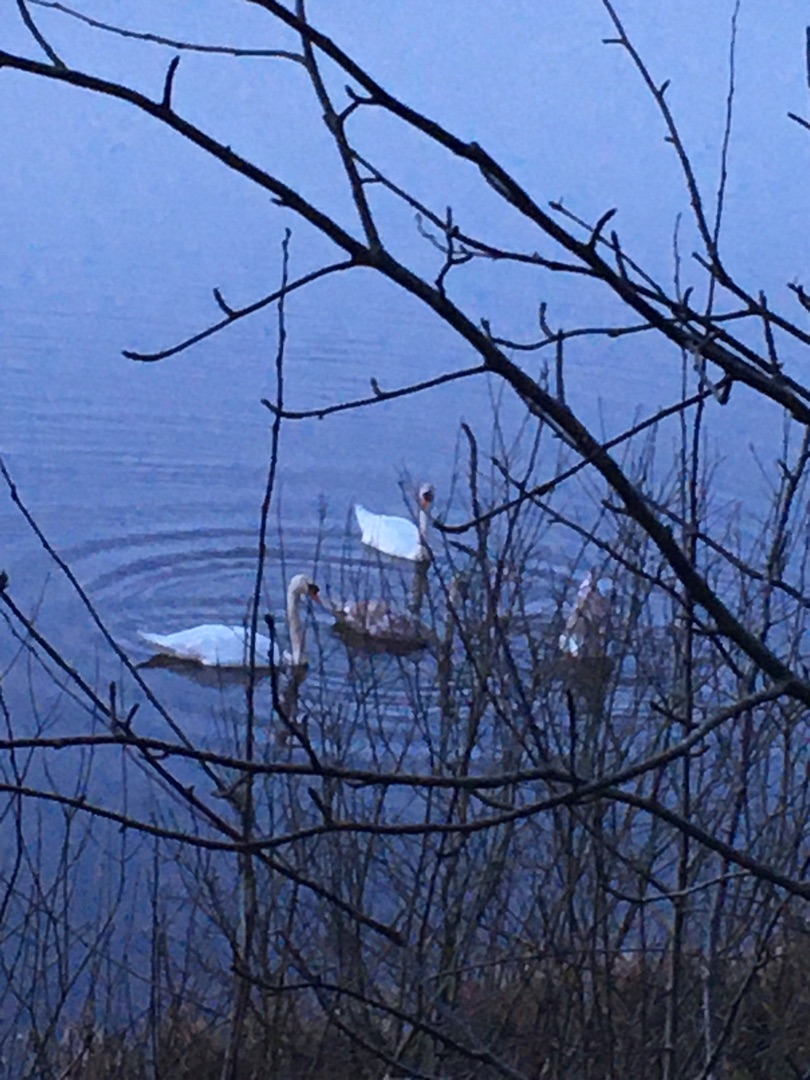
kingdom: Animalia
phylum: Chordata
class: Aves
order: Anseriformes
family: Anatidae
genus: Cygnus
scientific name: Cygnus olor
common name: Knopsvane
